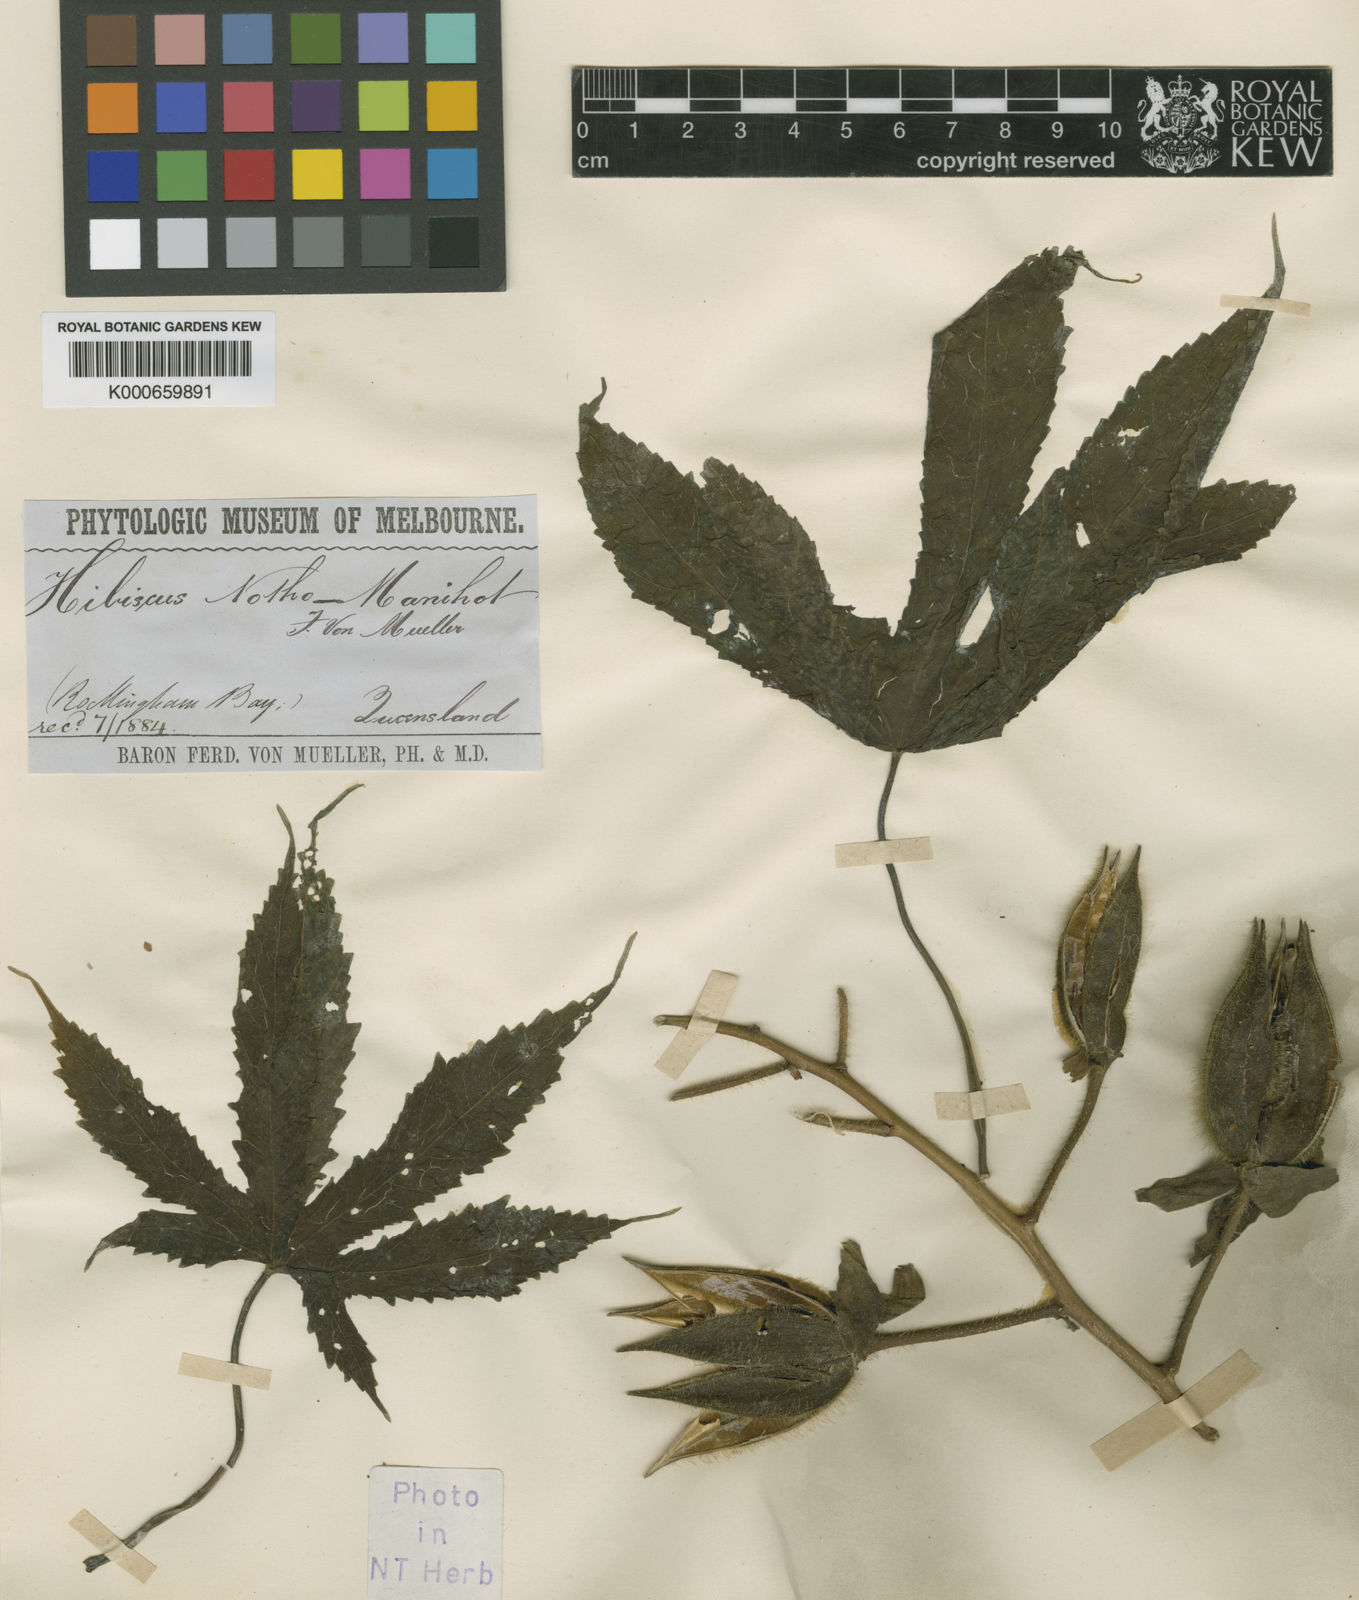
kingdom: Plantae
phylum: Tracheophyta
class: Magnoliopsida
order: Malvales
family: Malvaceae
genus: Hibiscus
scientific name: Hibiscus notho-manihot
